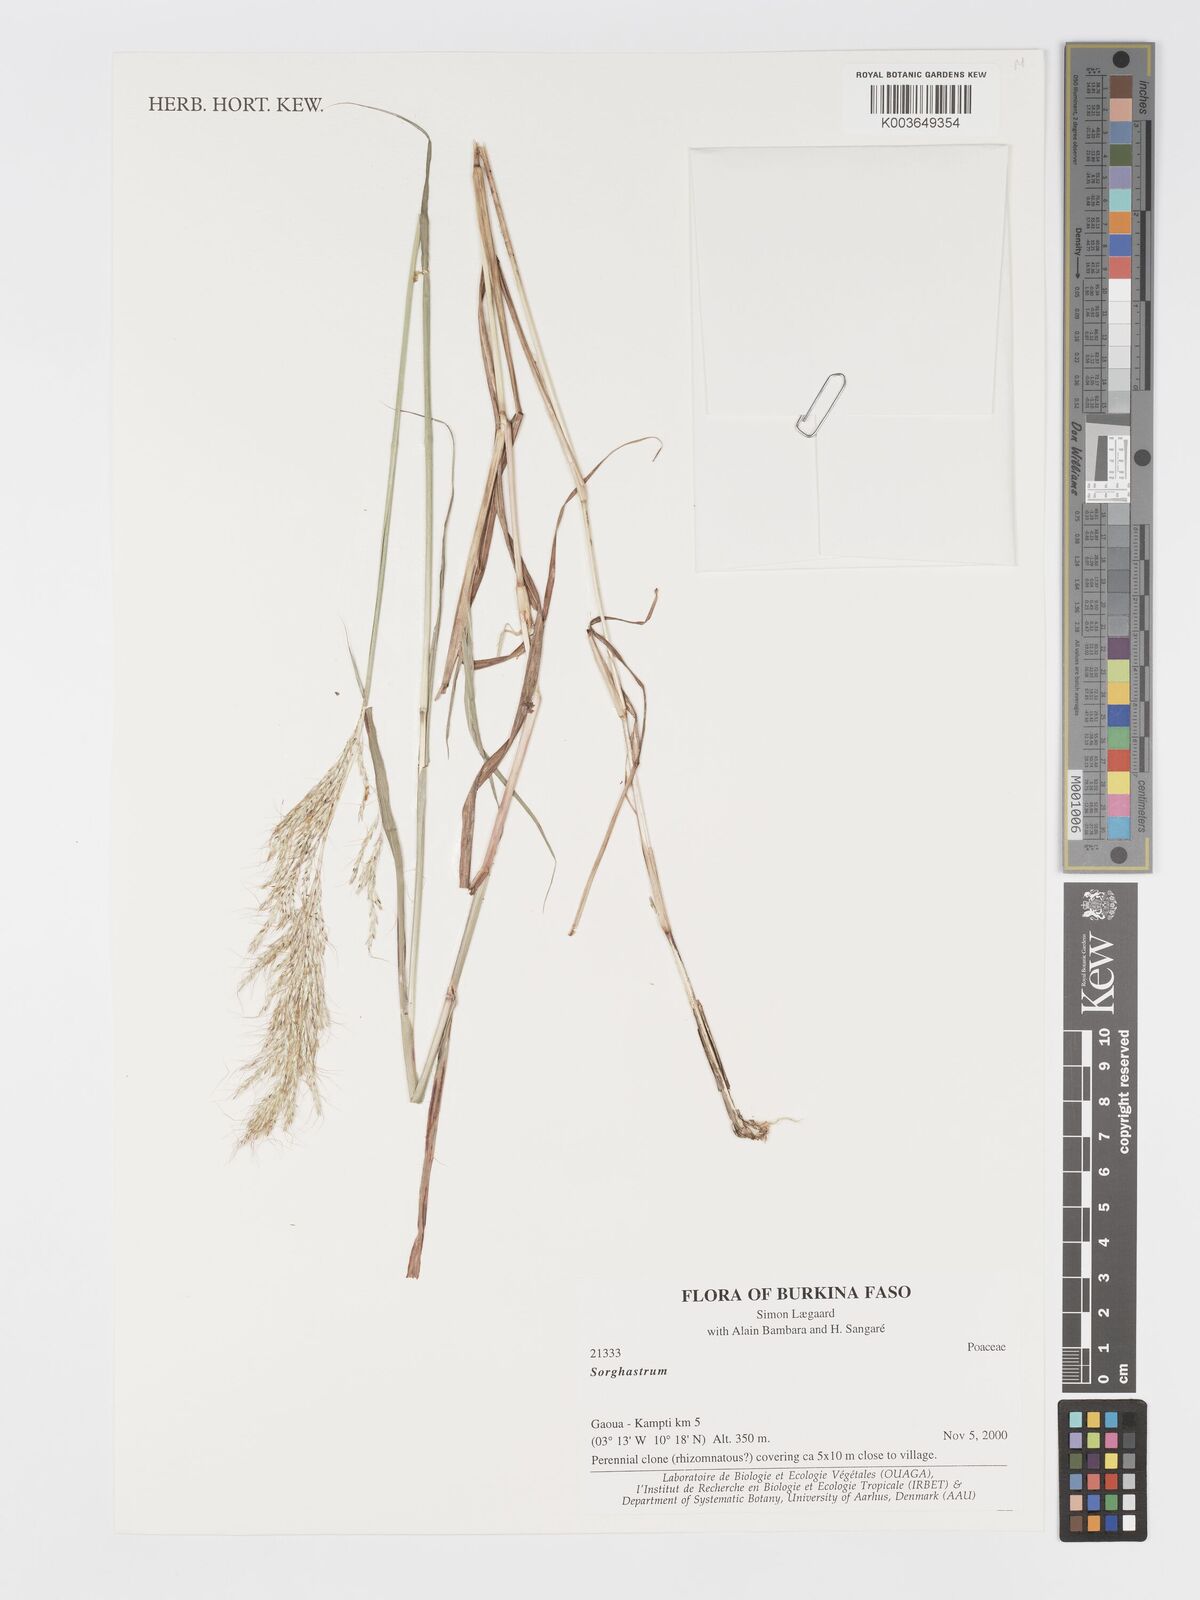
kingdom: Plantae
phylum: Tracheophyta
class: Liliopsida
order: Poales
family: Poaceae
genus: Sorghastrum
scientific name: Sorghastrum
